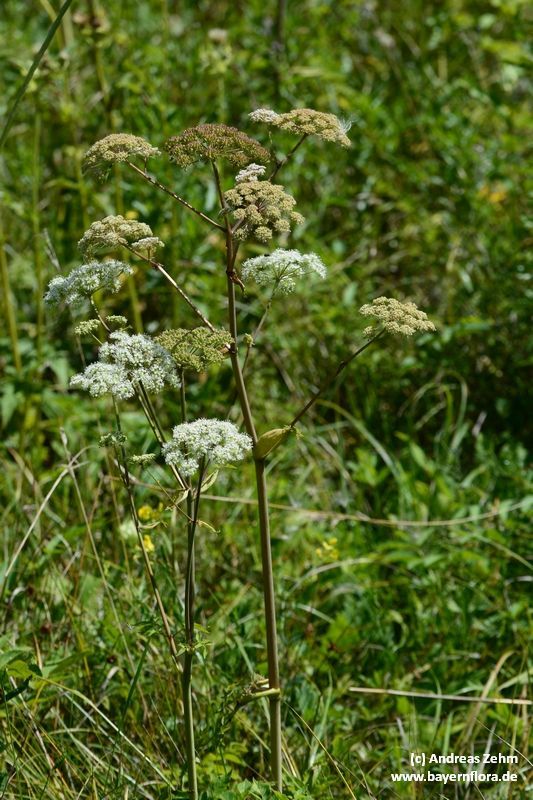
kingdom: Plantae
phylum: Tracheophyta
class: Magnoliopsida
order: Apiales
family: Apiaceae
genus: Angelica
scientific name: Angelica sylvestris
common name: Wild angelica
